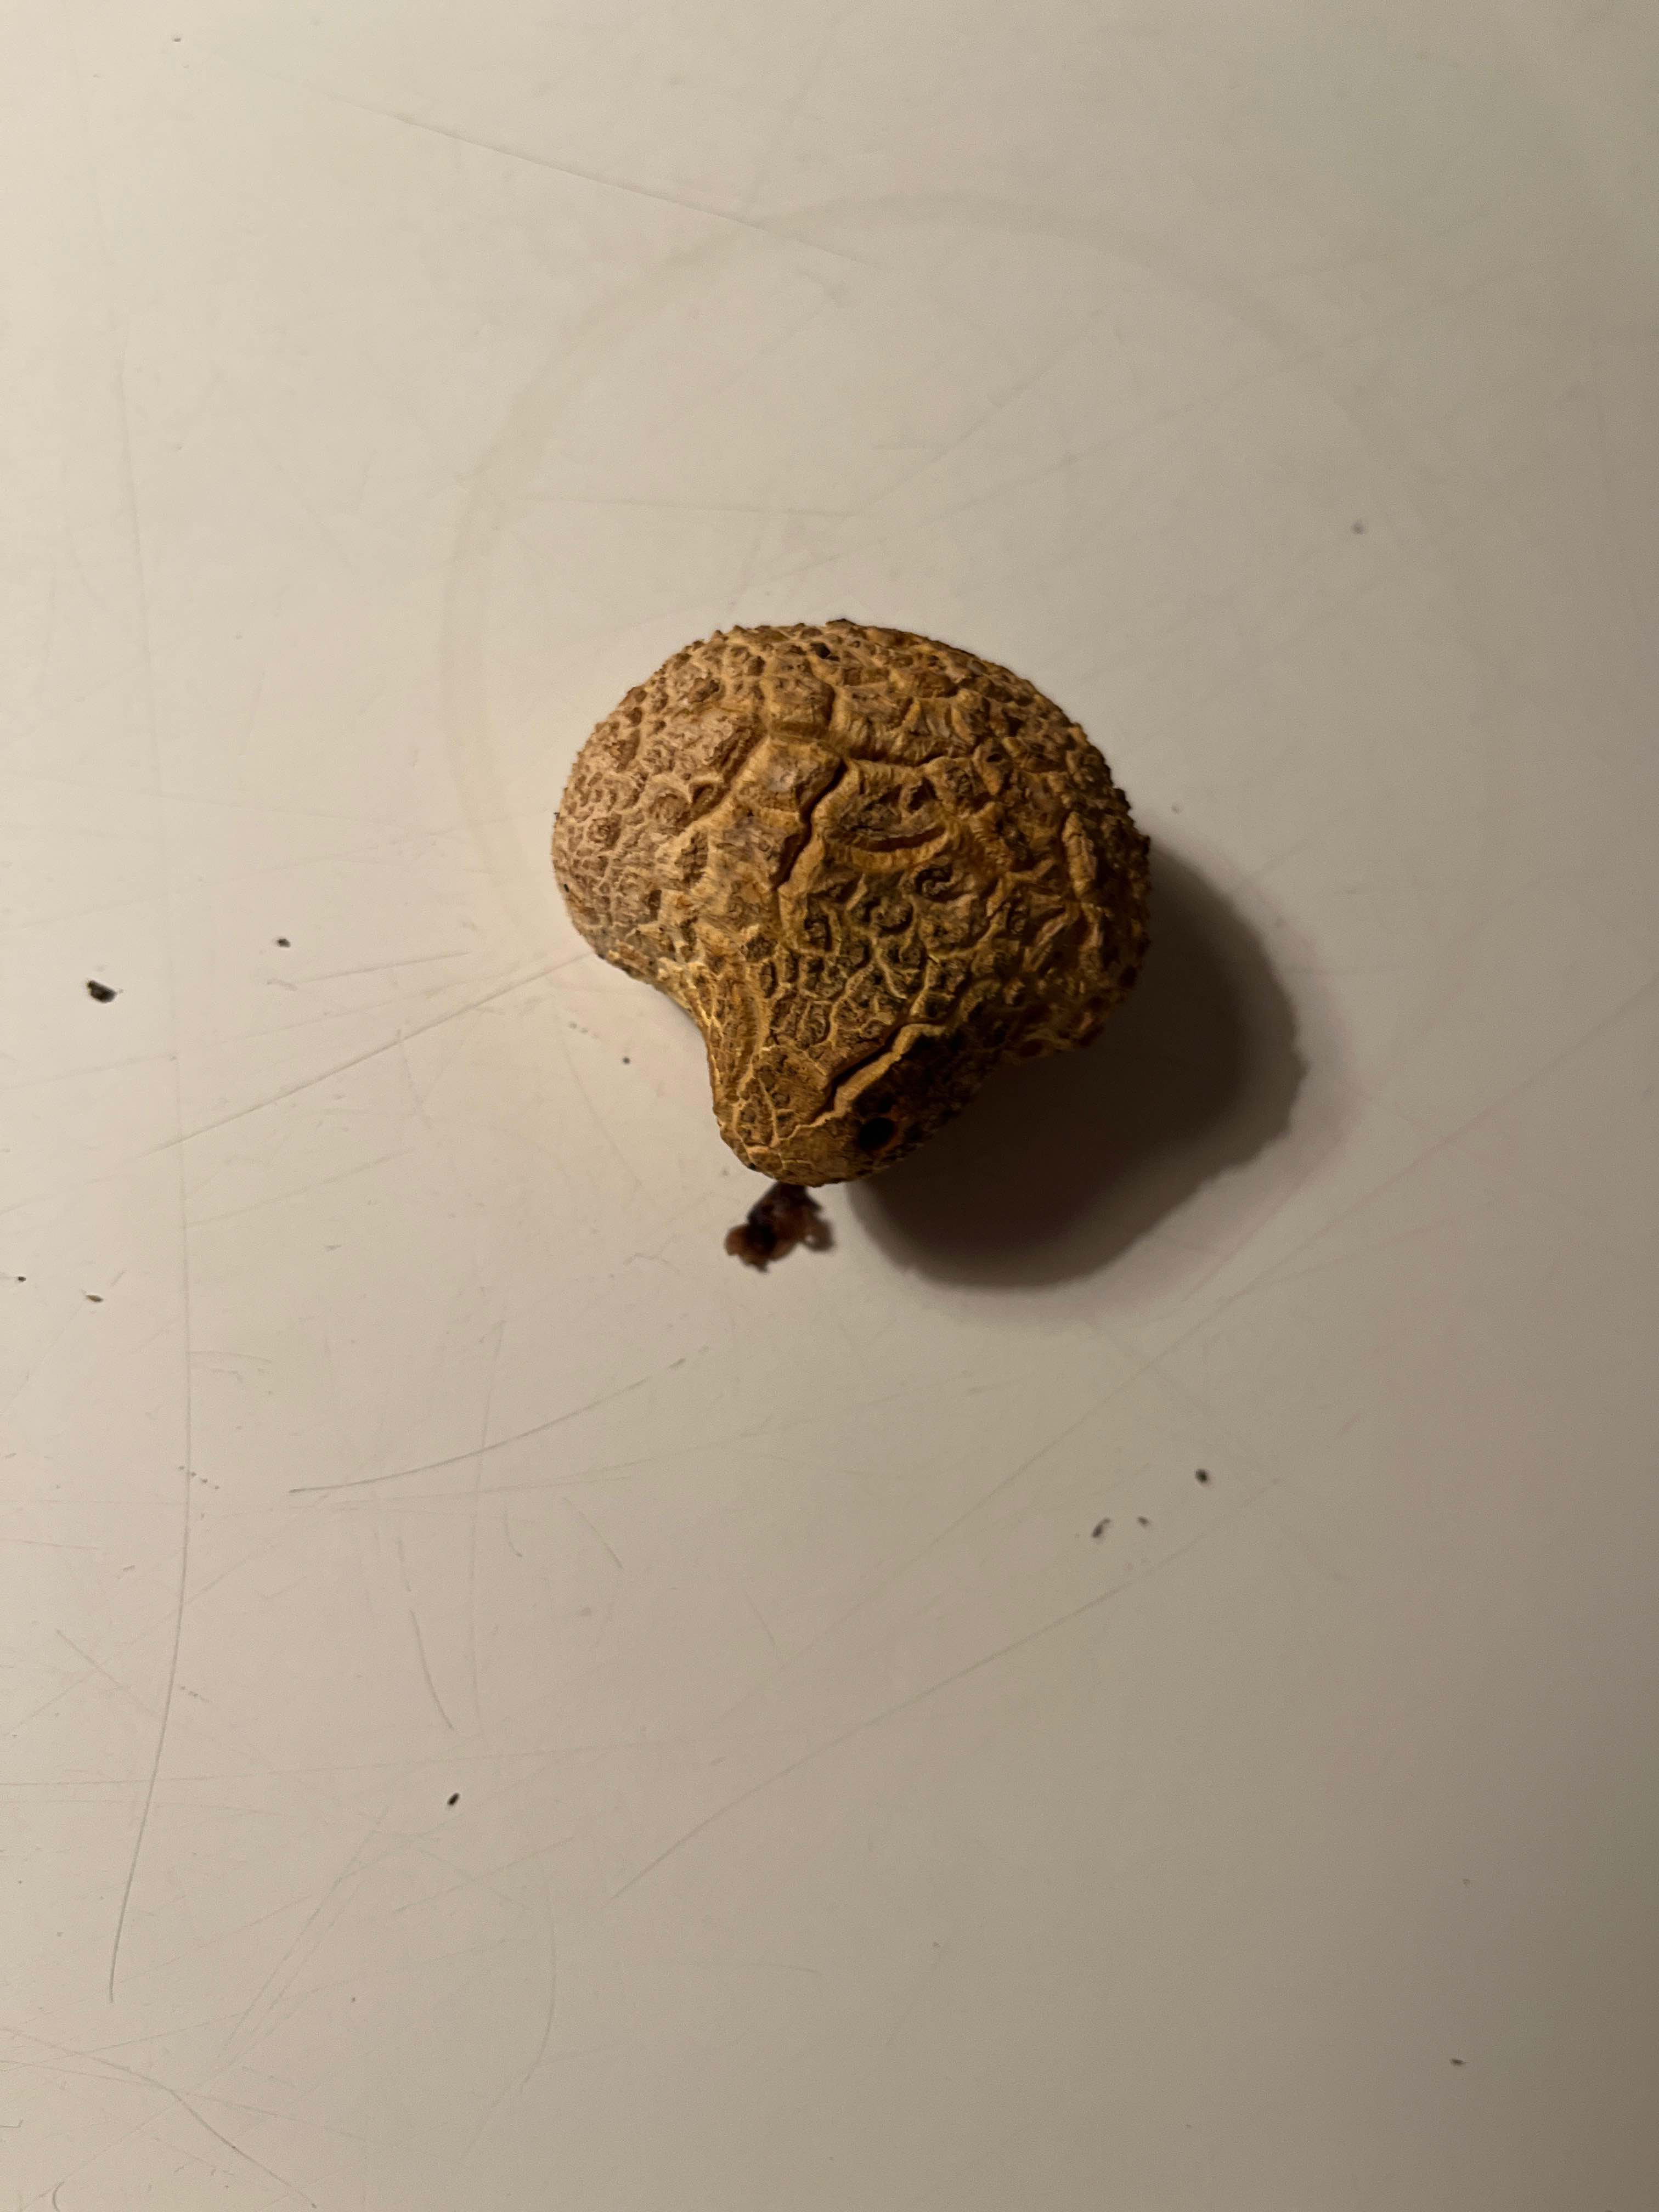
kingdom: Fungi
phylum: Basidiomycota
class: Agaricomycetes
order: Boletales
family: Sclerodermataceae
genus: Scleroderma
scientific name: Scleroderma citrinum
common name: almindelig bruskbold
